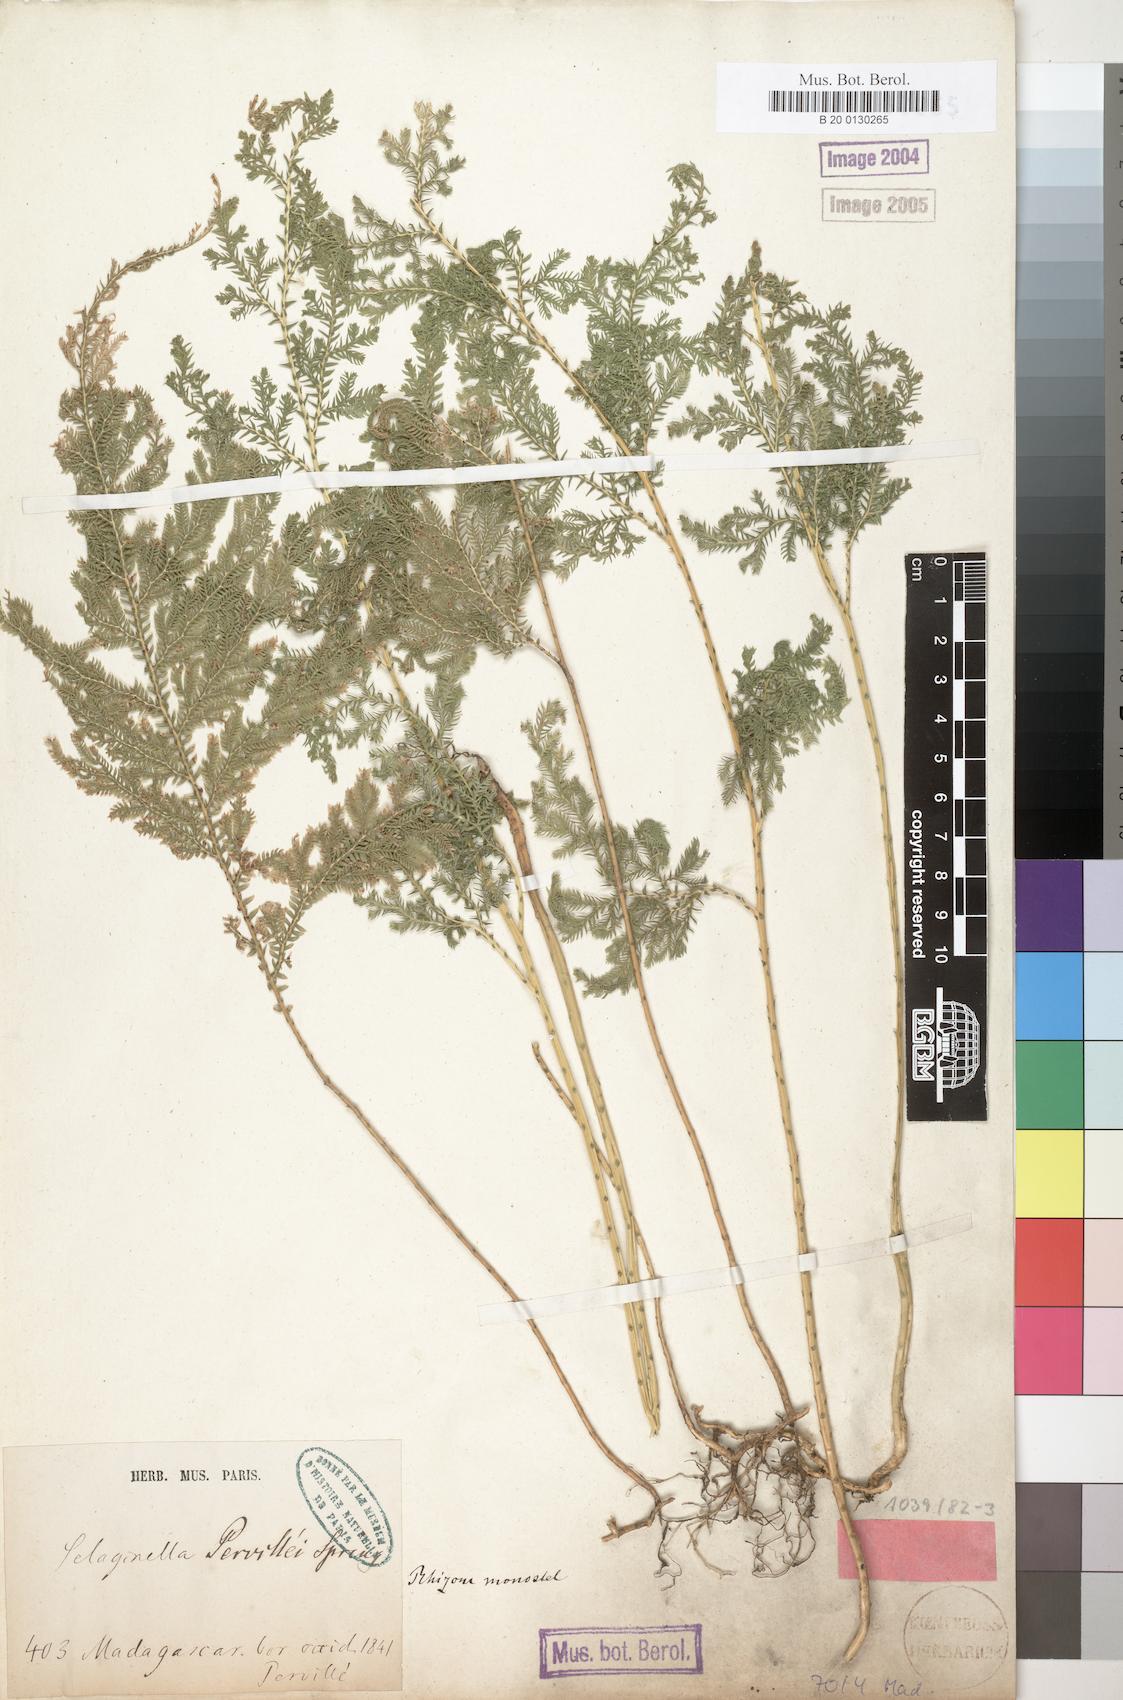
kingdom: Plantae
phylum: Tracheophyta
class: Lycopodiopsida
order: Selaginellales
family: Selaginellaceae
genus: Selaginella
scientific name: Selaginella pervillei
